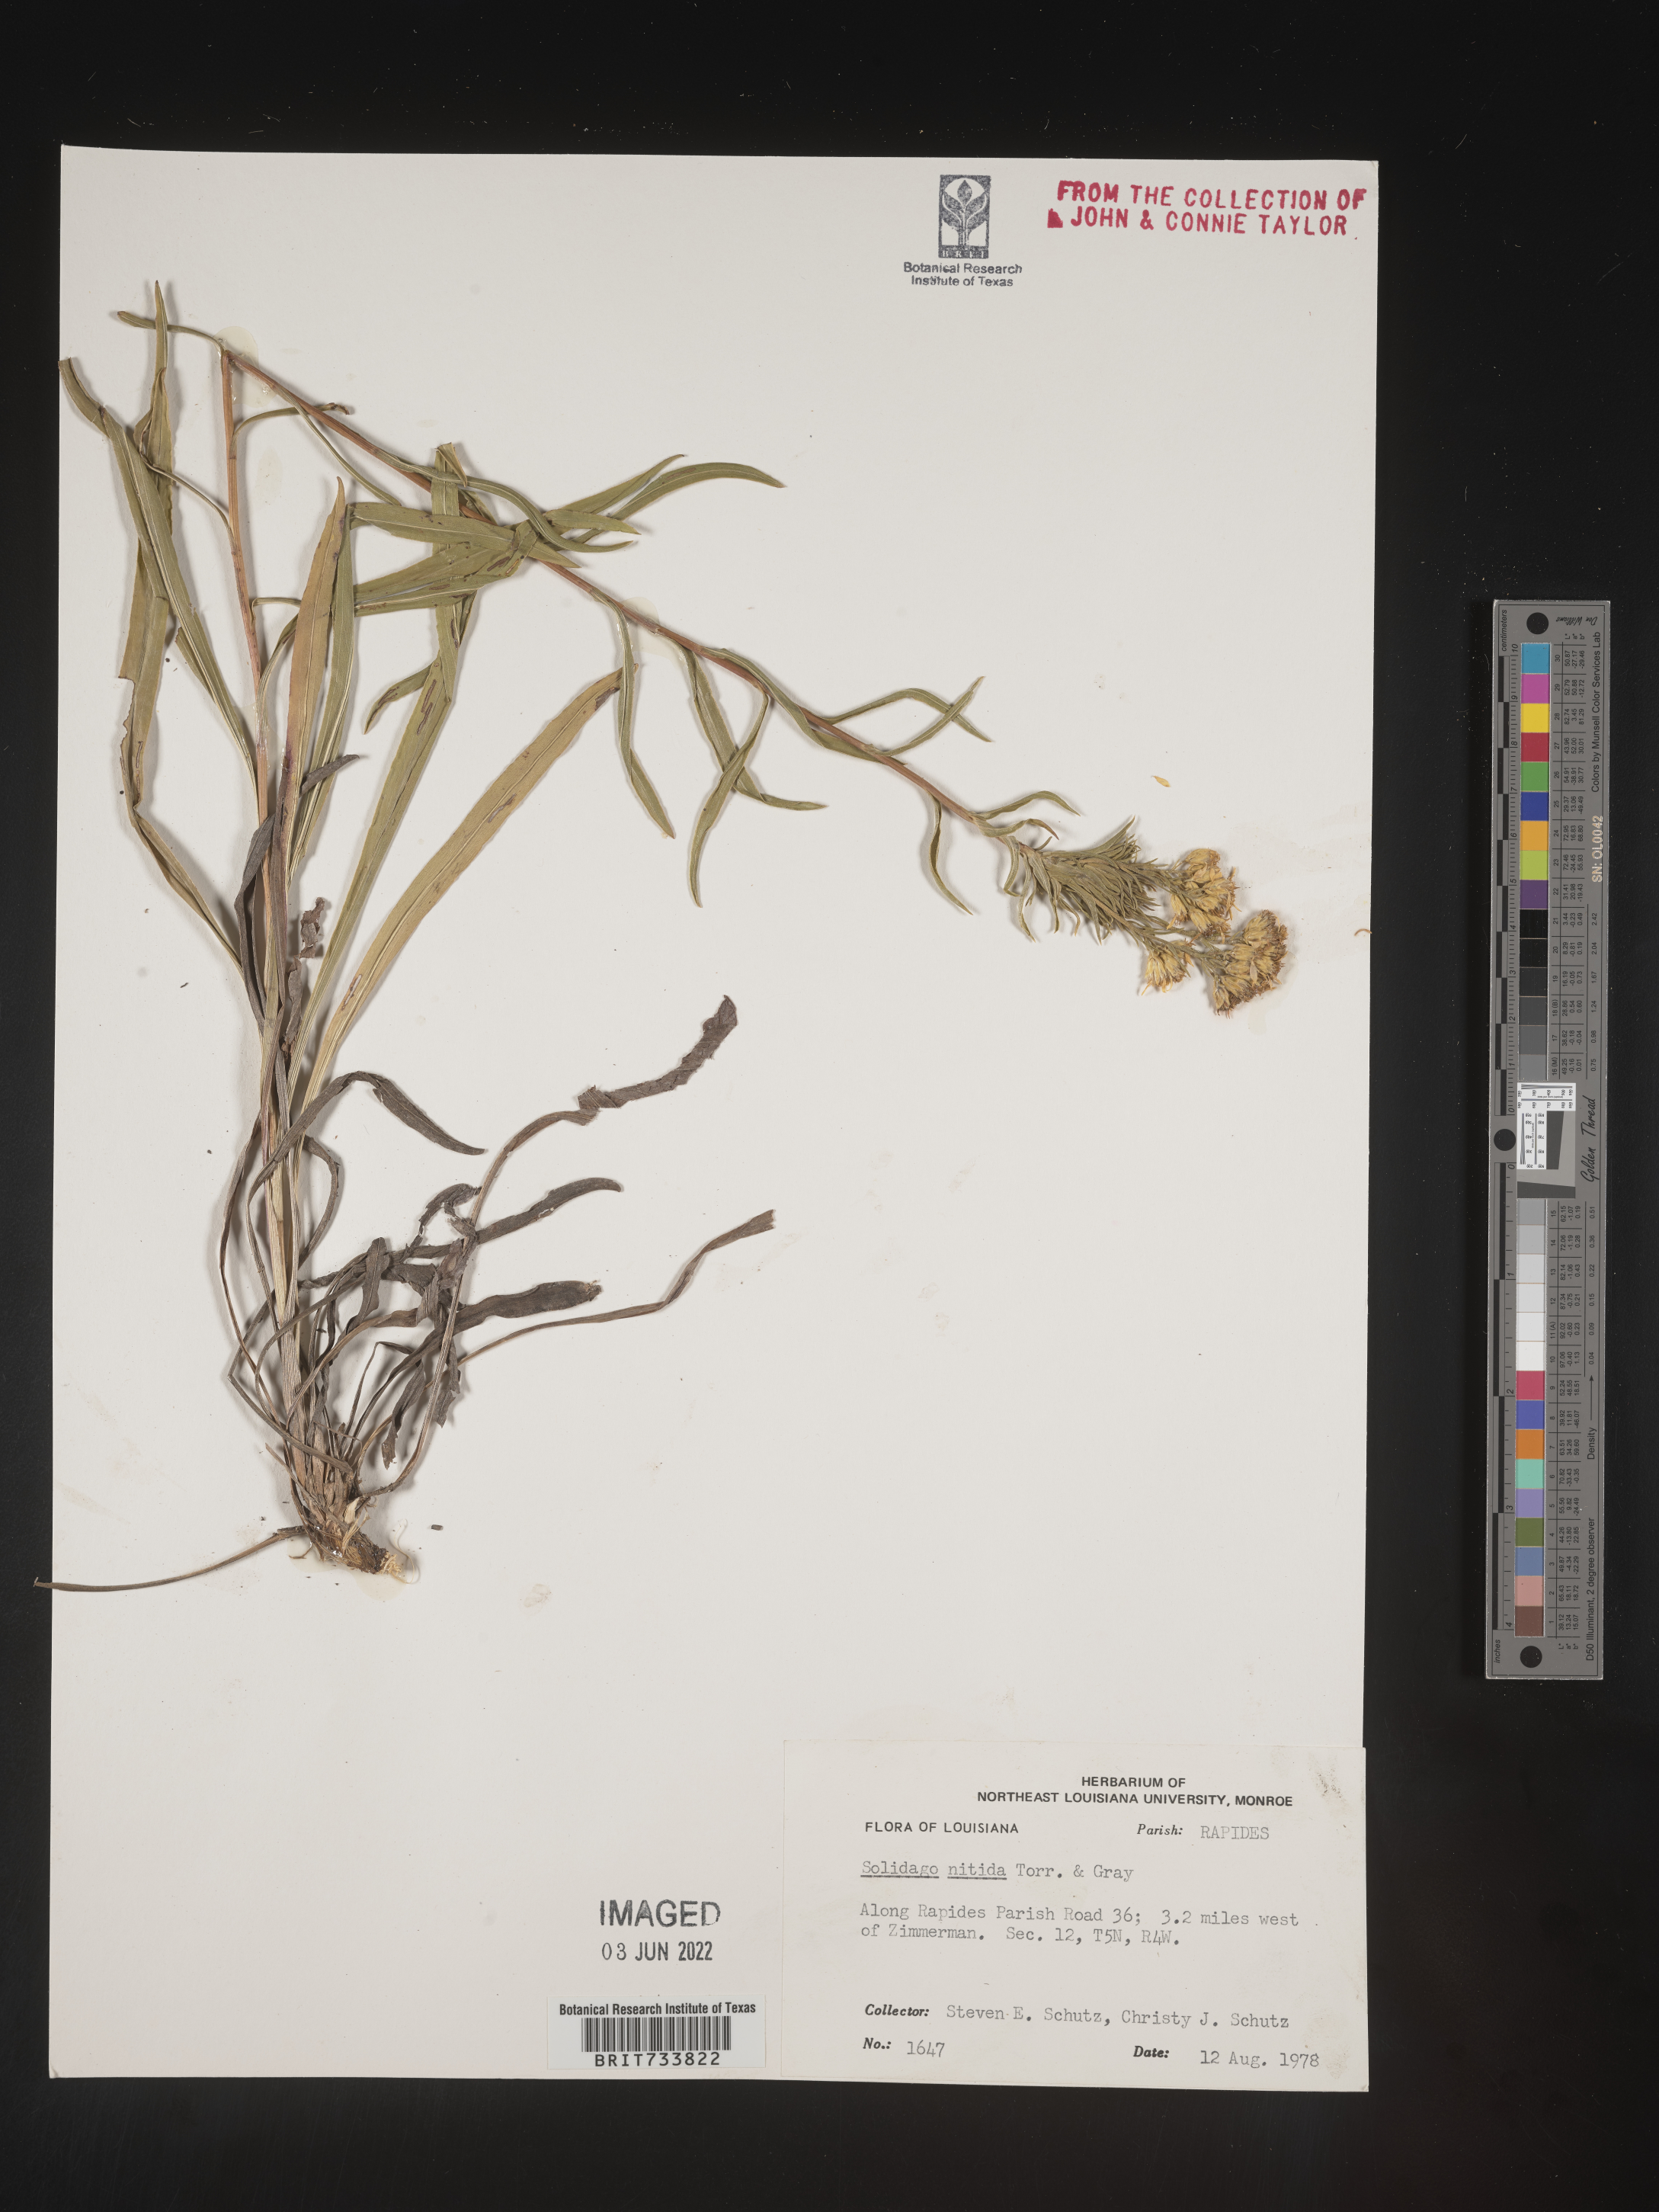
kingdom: Plantae
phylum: Tracheophyta
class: Magnoliopsida
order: Asterales
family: Asteraceae
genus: Solidago
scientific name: Solidago nitida
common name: Shiny goldenrod
